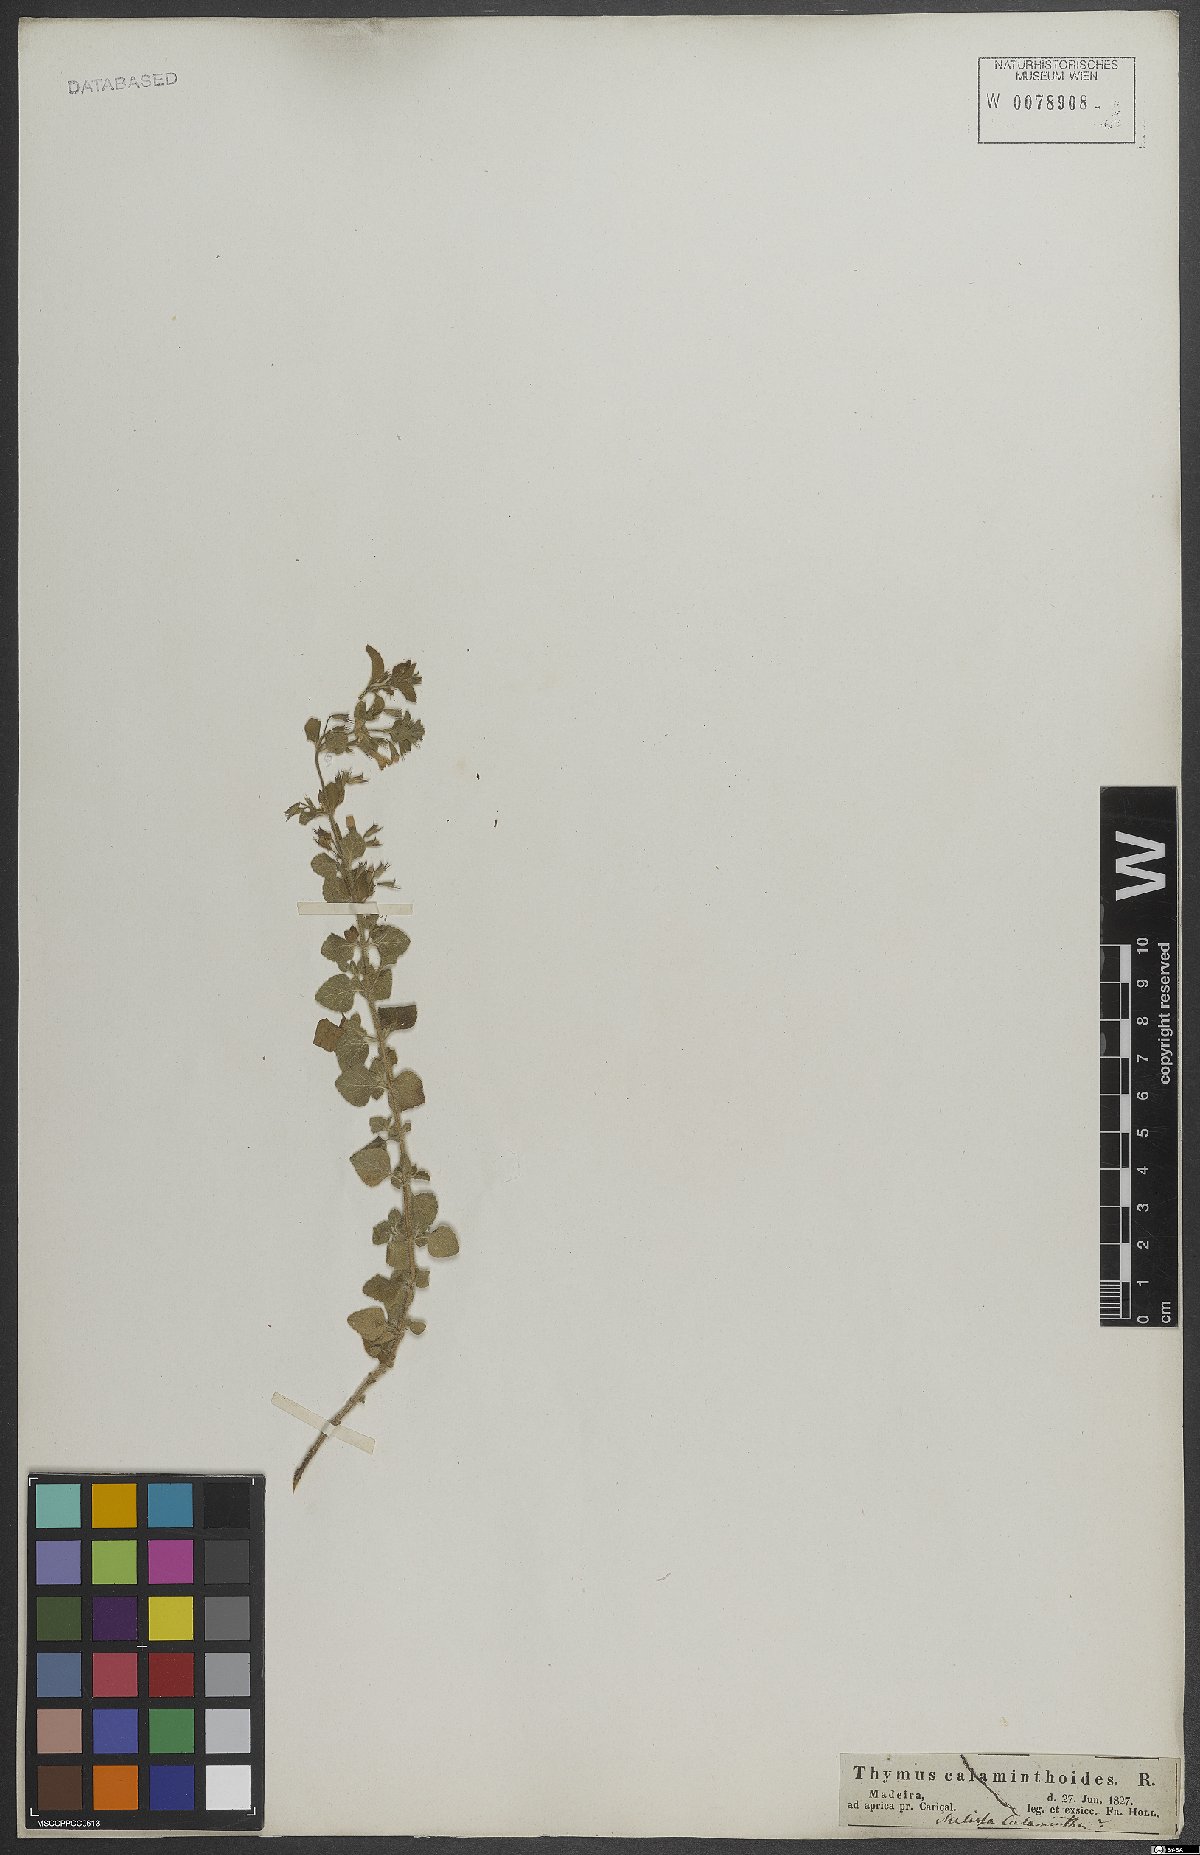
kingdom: Plantae
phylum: Tracheophyta
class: Magnoliopsida
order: Lamiales
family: Lamiaceae
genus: Clinopodium
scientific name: Clinopodium nepeta
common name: Lesser calamint
